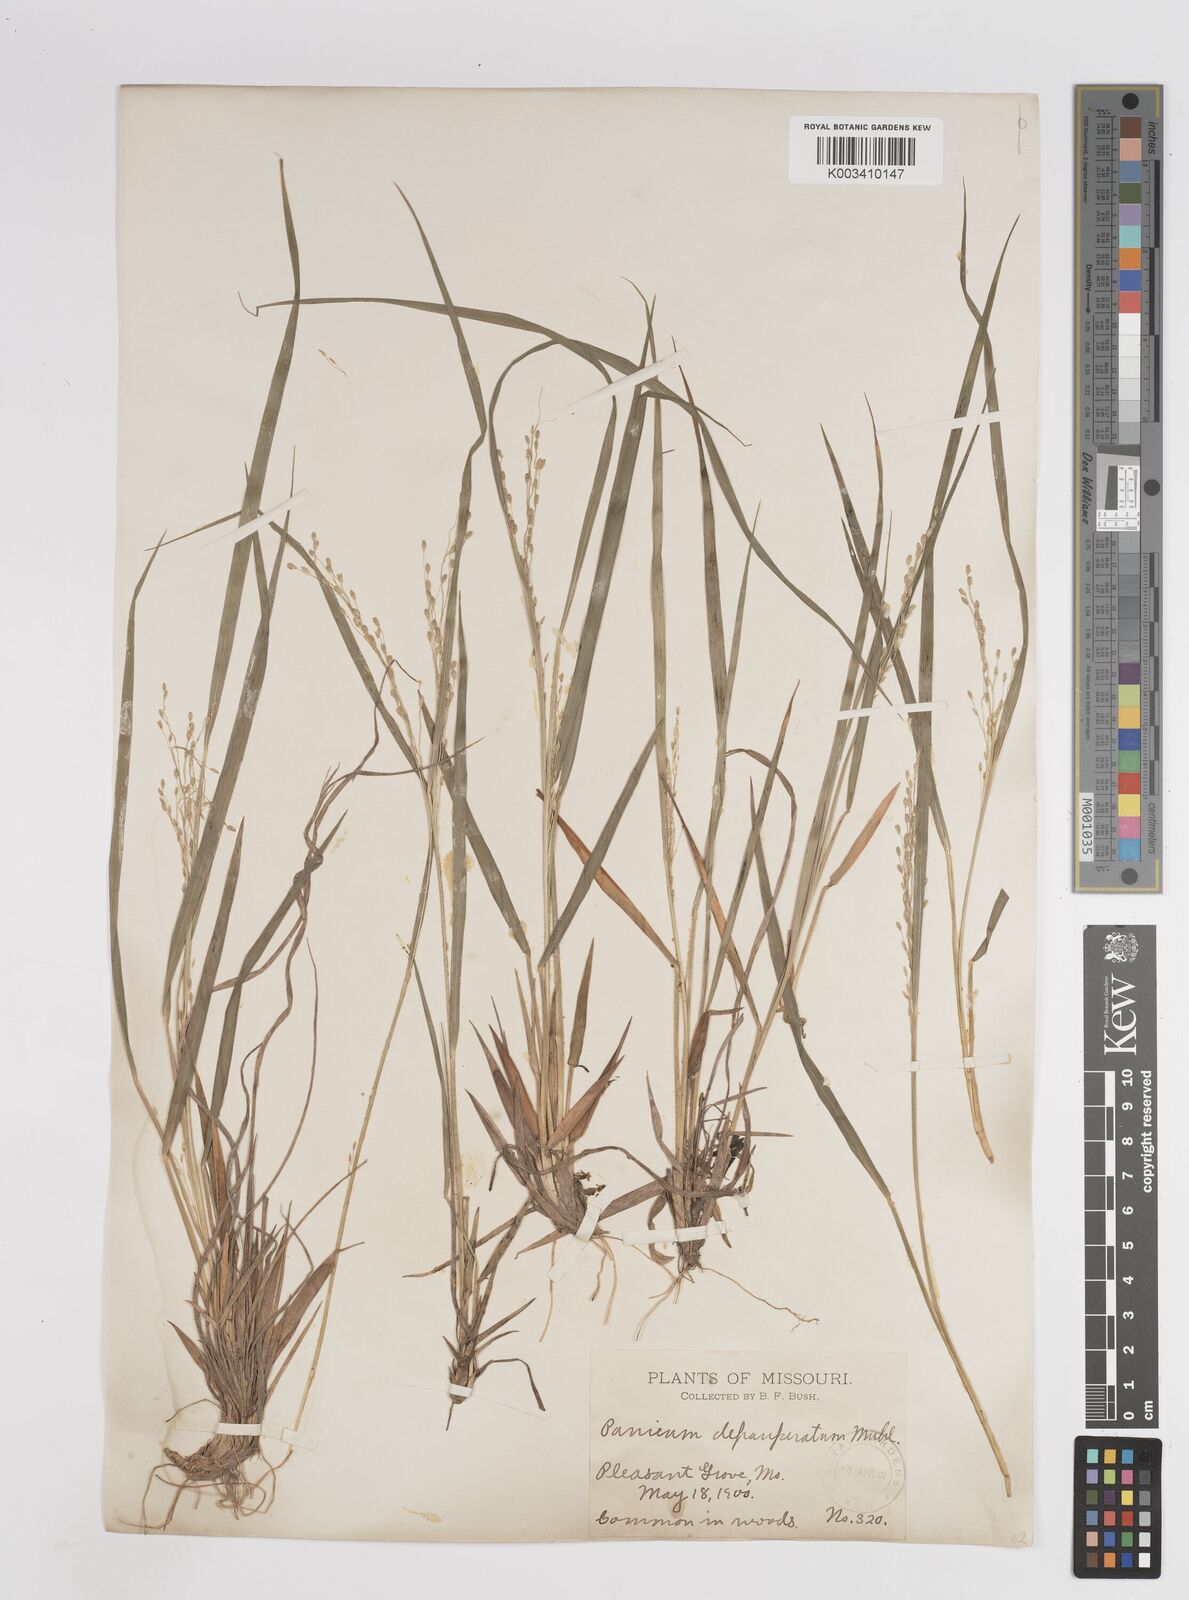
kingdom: Plantae
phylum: Tracheophyta
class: Liliopsida
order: Poales
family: Poaceae
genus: Dichanthelium
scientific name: Dichanthelium depauperatum
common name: Depauperate panicgrass
